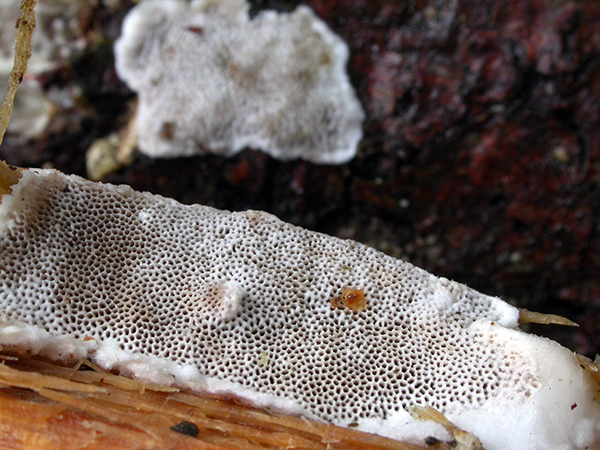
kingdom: Fungi
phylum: Basidiomycota
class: Agaricomycetes
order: Polyporales
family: Gelatoporiaceae
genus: Cinereomyces
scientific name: Cinereomyces lindbladii
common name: almindelig gråporesvamp
